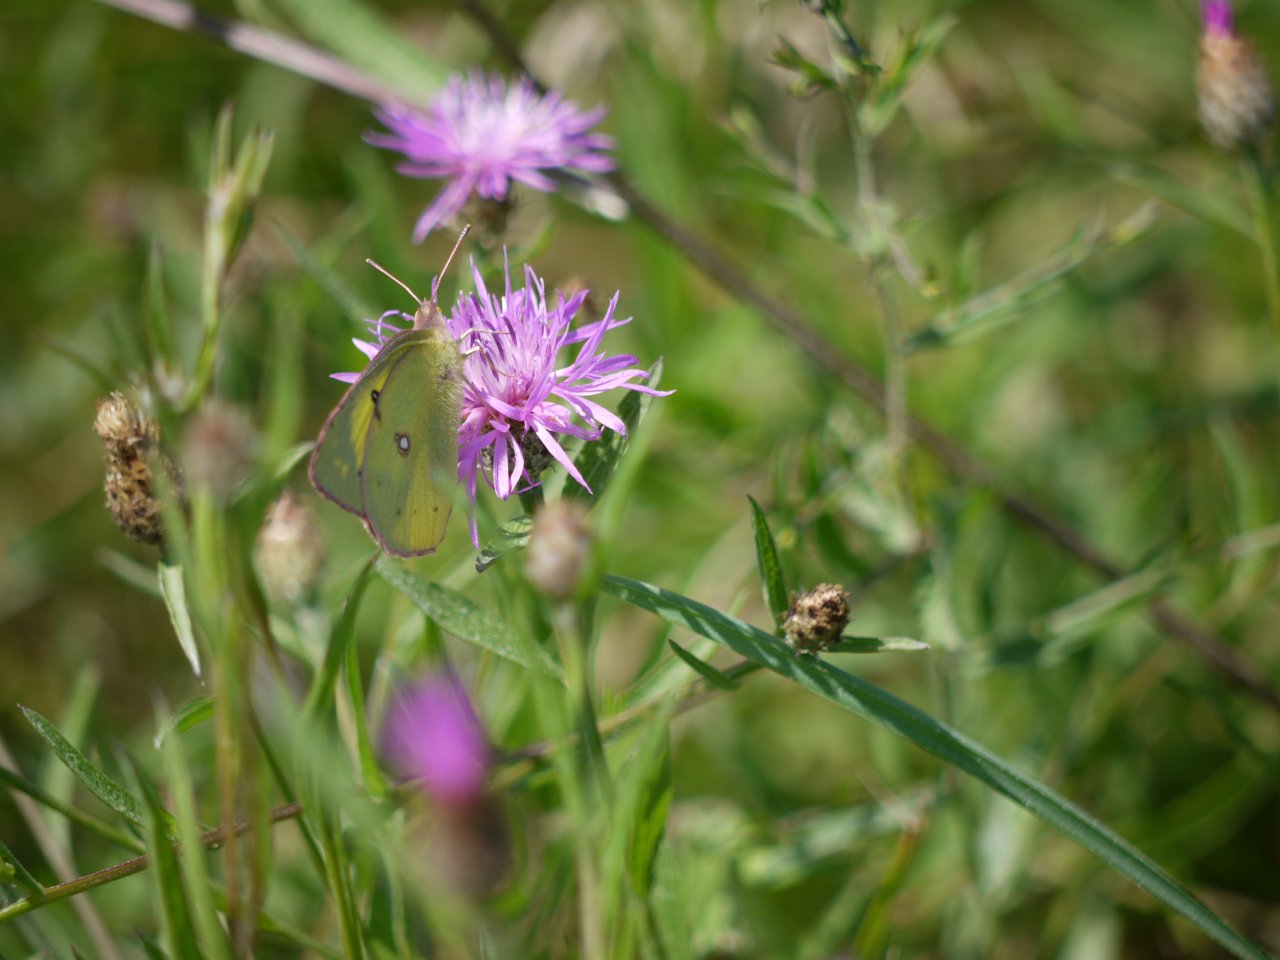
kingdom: Animalia
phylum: Arthropoda
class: Insecta
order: Lepidoptera
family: Pieridae
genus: Colias
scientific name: Colias philodice
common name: Clouded Sulphur
